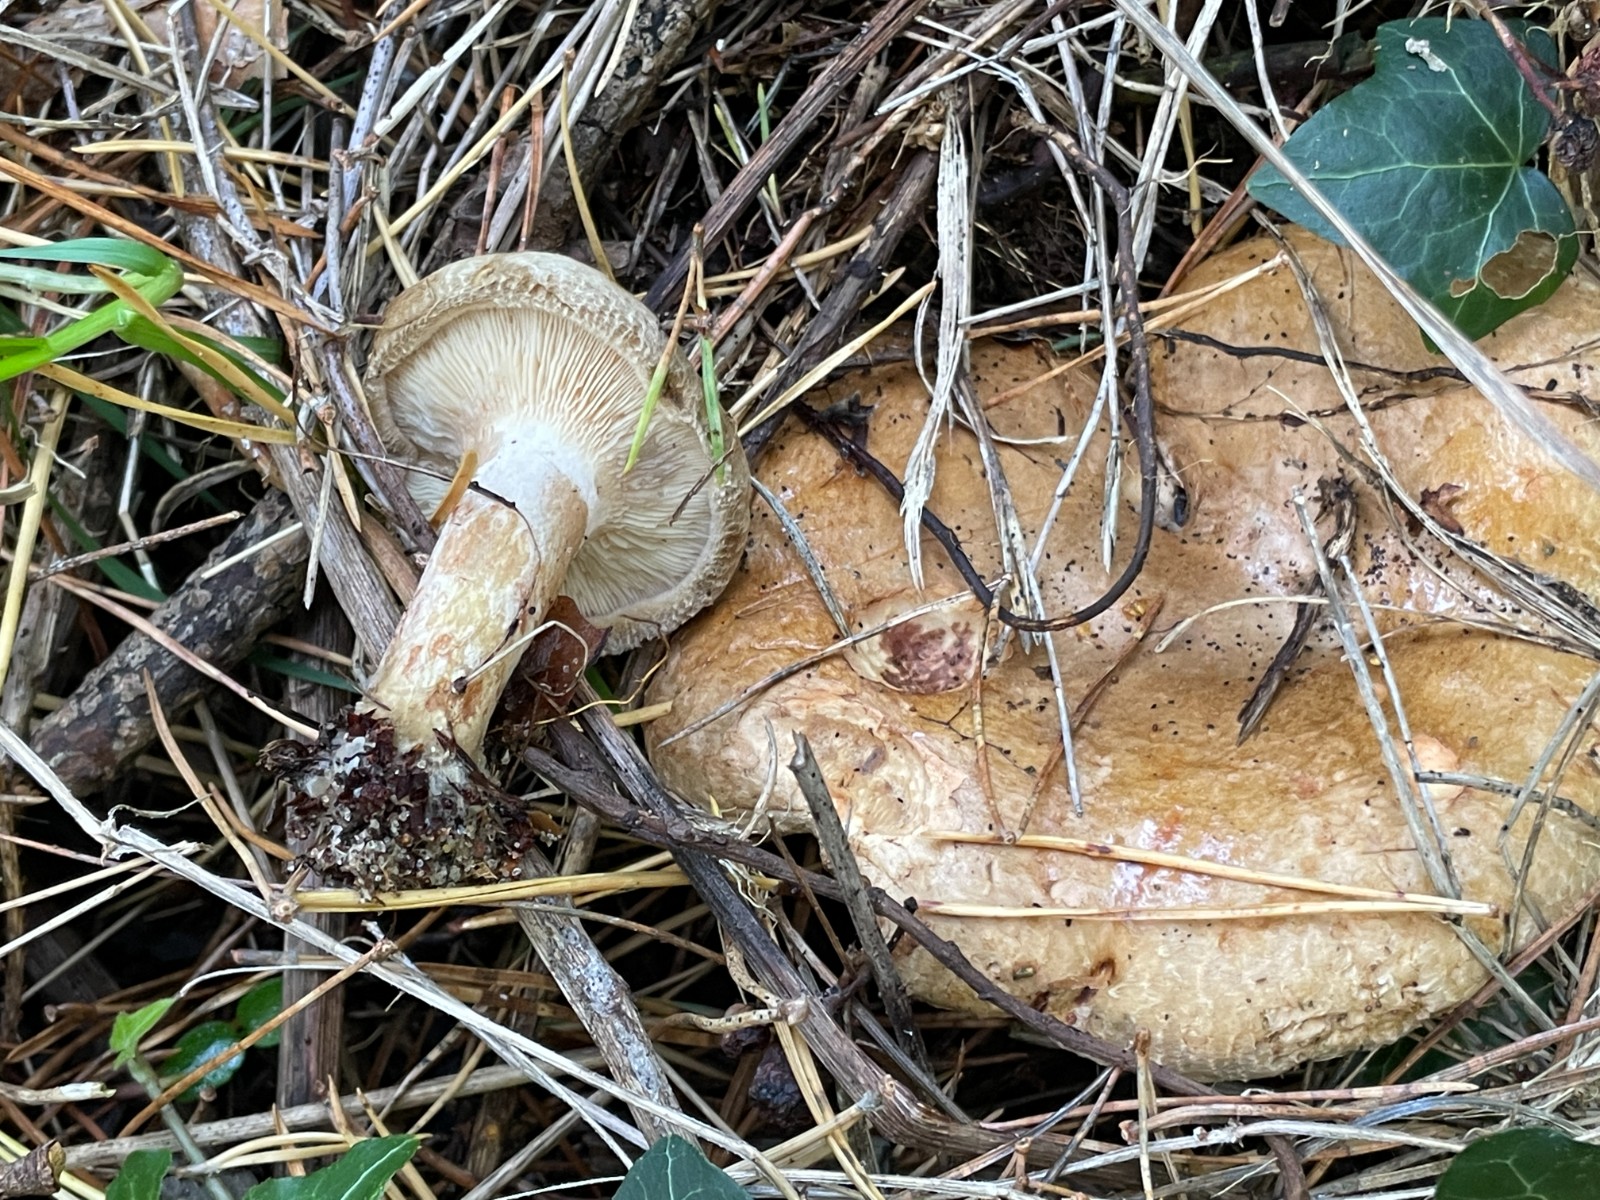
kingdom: Fungi
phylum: Basidiomycota
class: Agaricomycetes
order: Boletales
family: Paxillaceae
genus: Paxillus
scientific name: Paxillus involutus
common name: almindelig netbladhat
